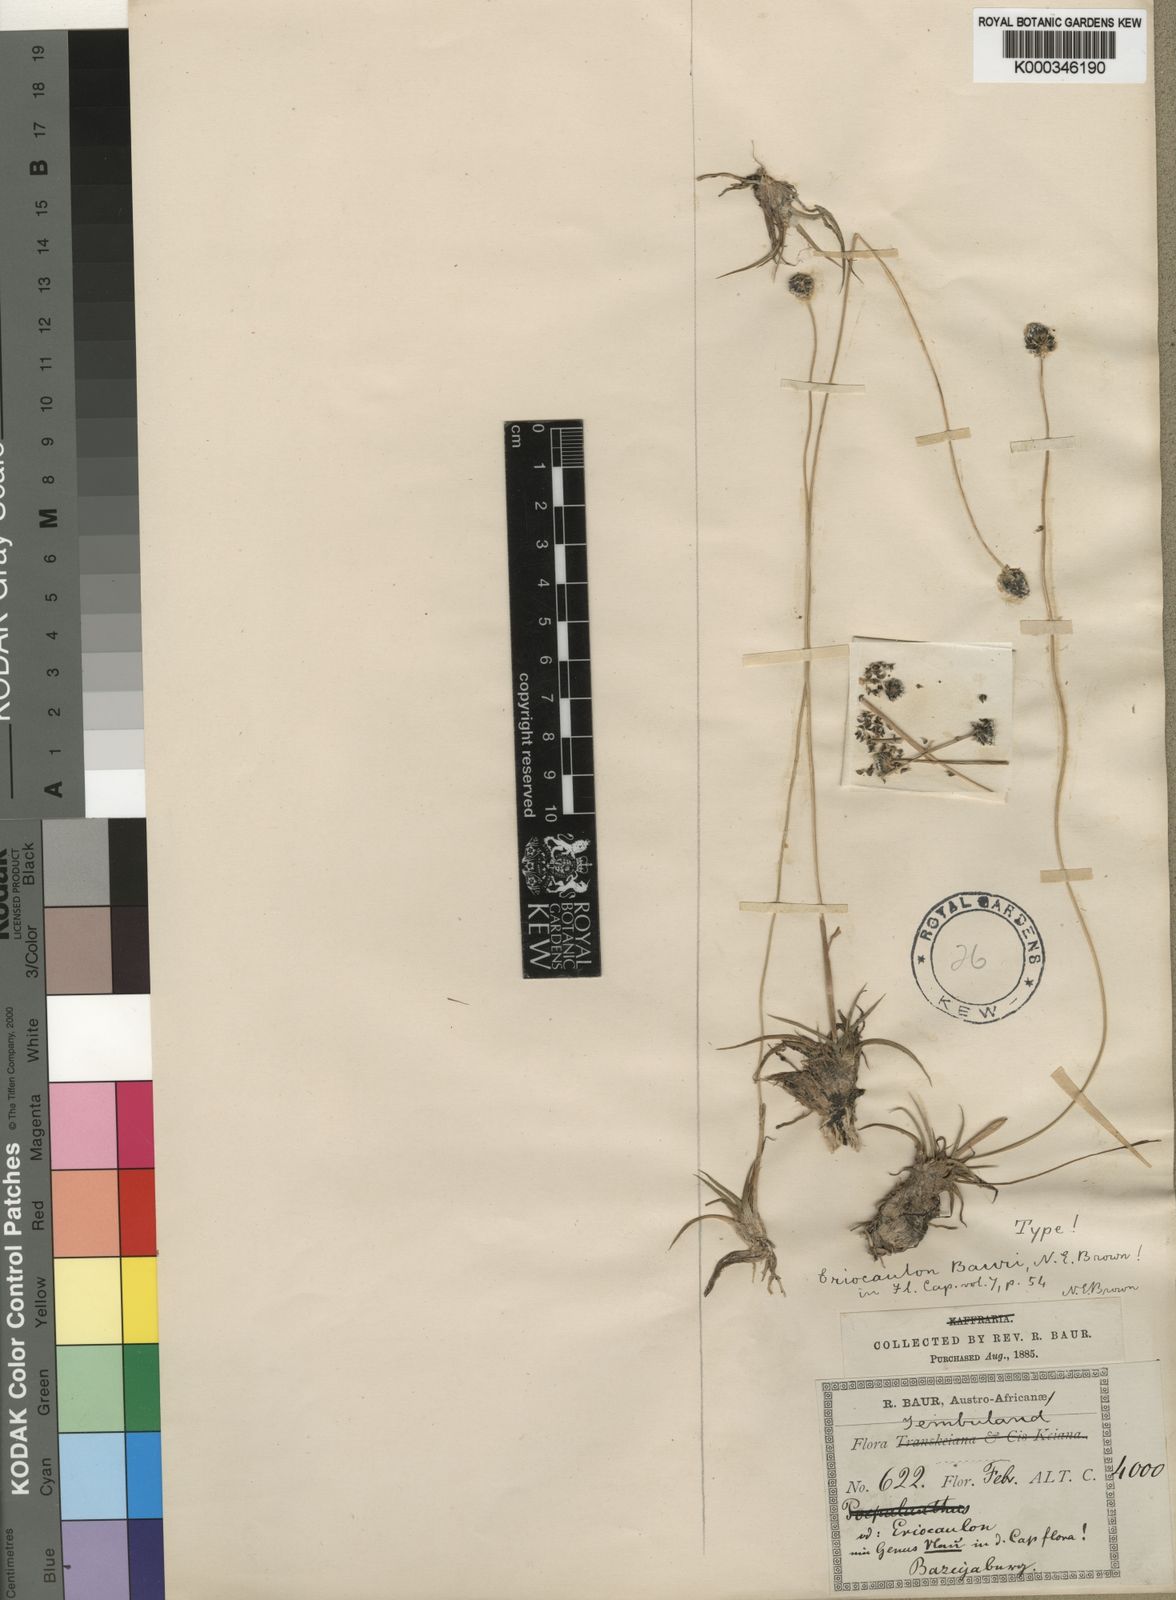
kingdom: Plantae
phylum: Tracheophyta
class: Liliopsida
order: Poales
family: Eriocaulaceae
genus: Eriocaulon
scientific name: Eriocaulon dregei
